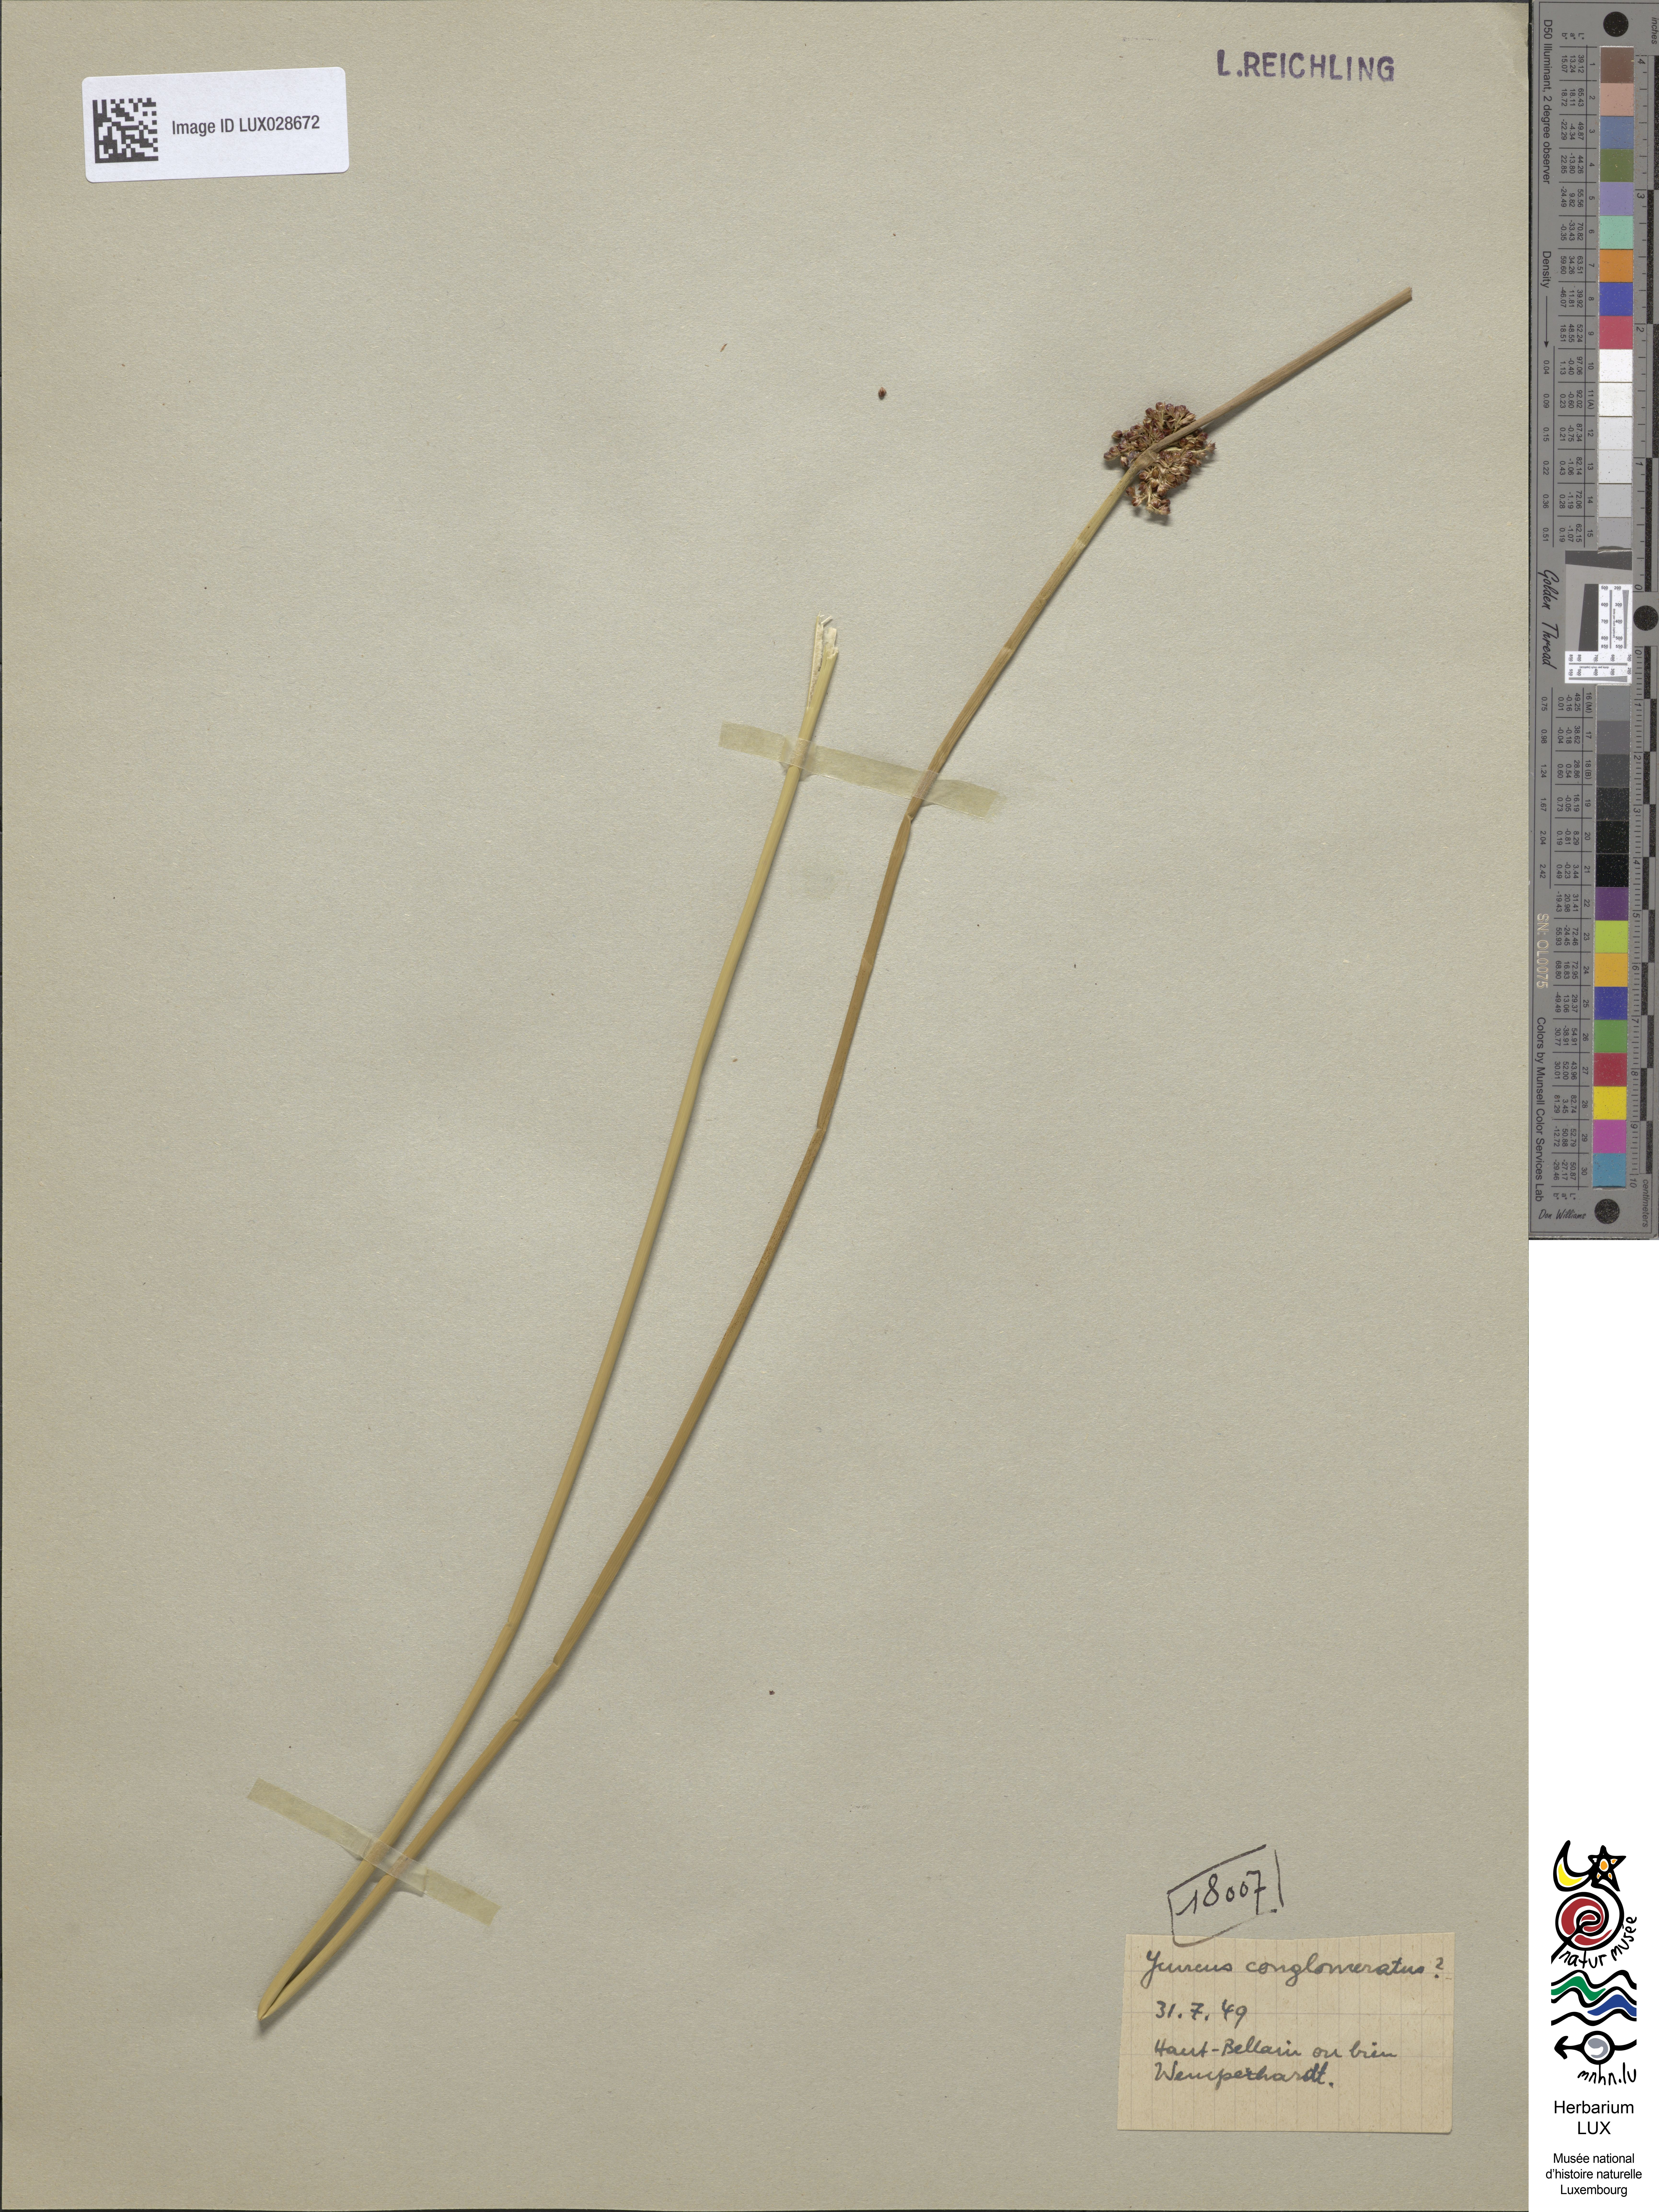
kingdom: Plantae
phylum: Tracheophyta
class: Liliopsida
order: Poales
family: Juncaceae
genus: Juncus
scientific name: Juncus conglomeratus
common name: Compact rush
